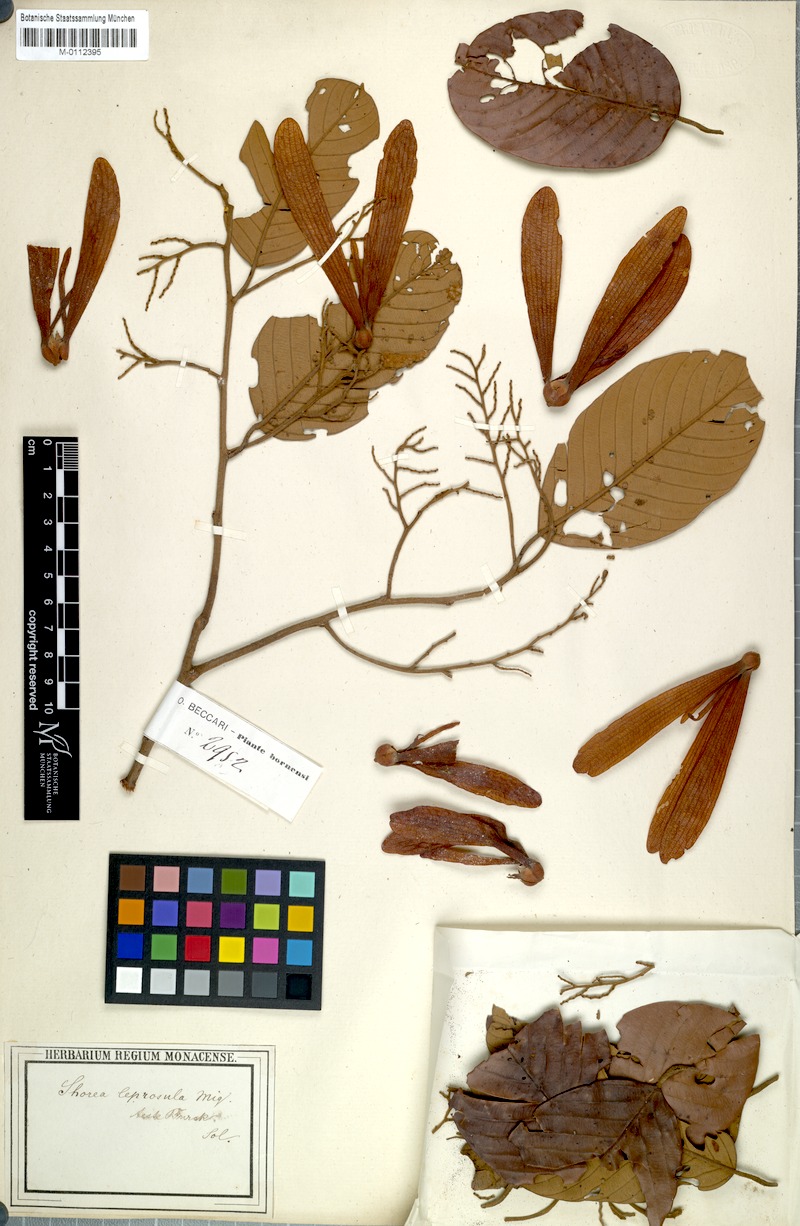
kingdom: Plantae
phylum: Tracheophyta
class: Magnoliopsida
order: Malvales
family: Dipterocarpaceae
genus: Shorea
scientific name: Shorea leprosula
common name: Light red meranti
